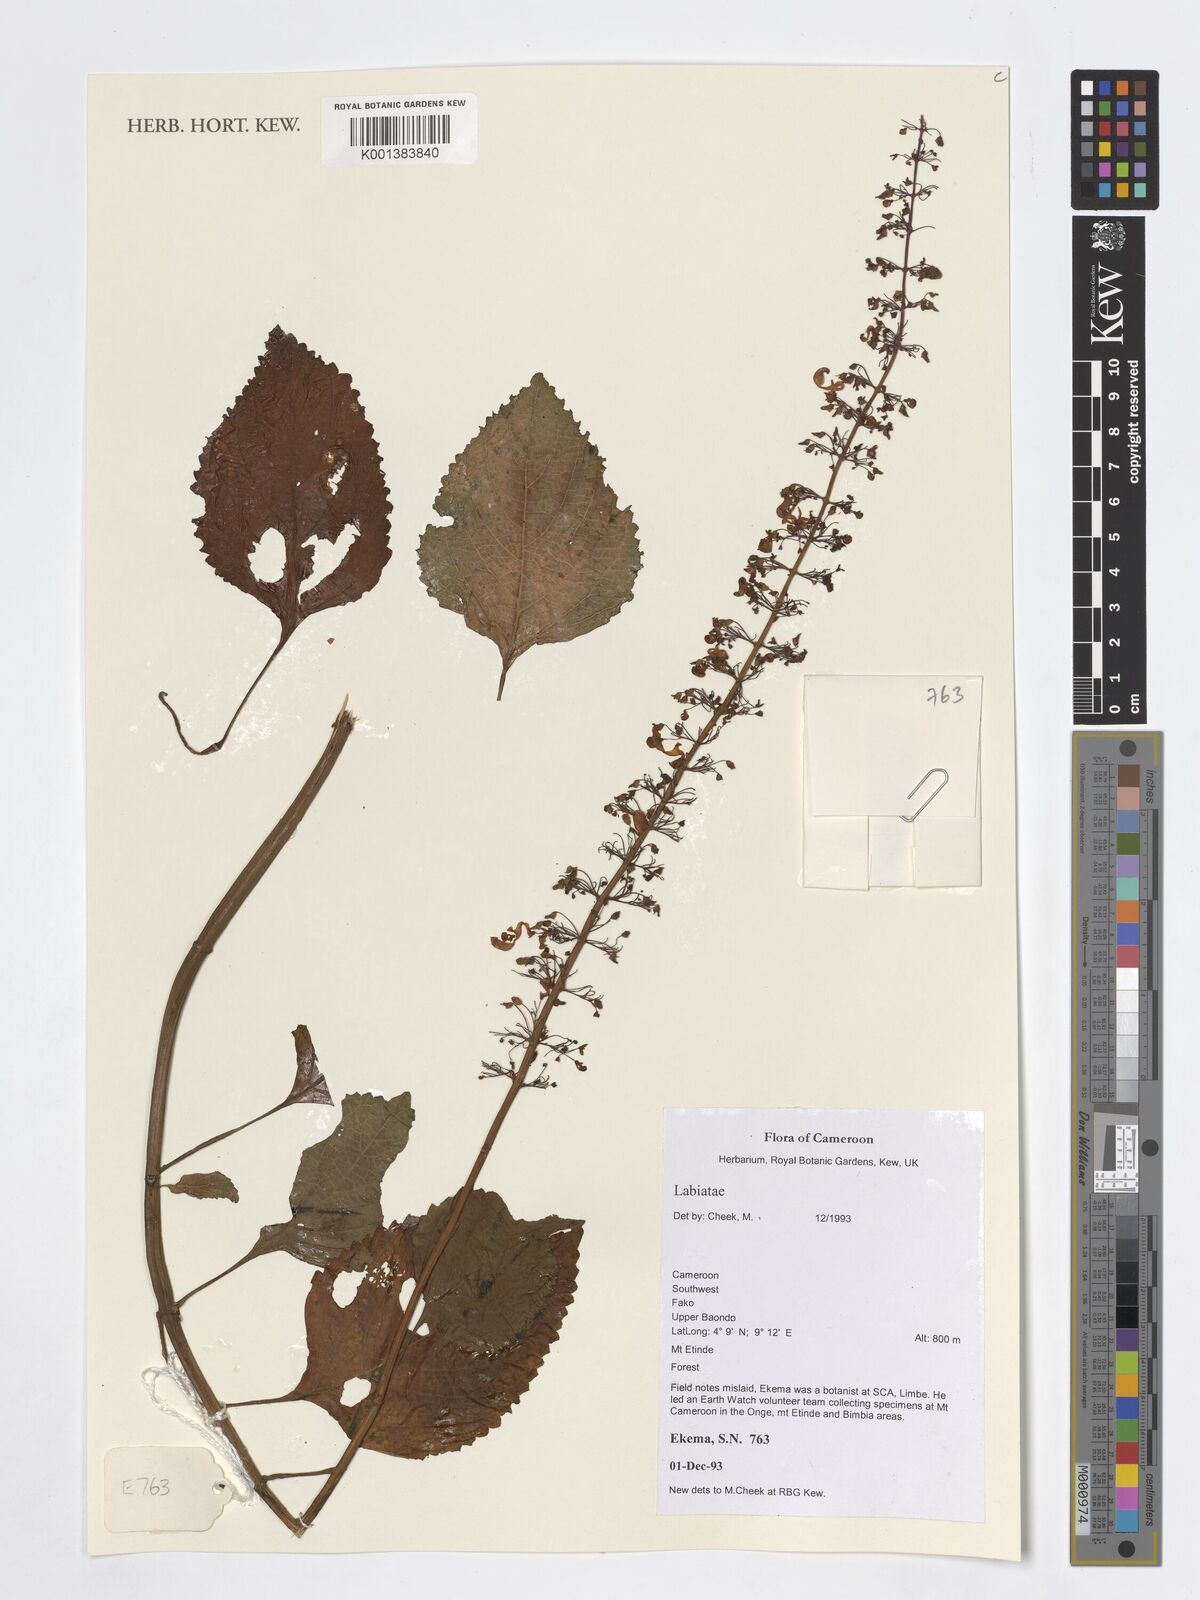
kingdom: Plantae
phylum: Tracheophyta
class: Magnoliopsida
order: Lamiales
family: Lamiaceae
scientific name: Lamiaceae
